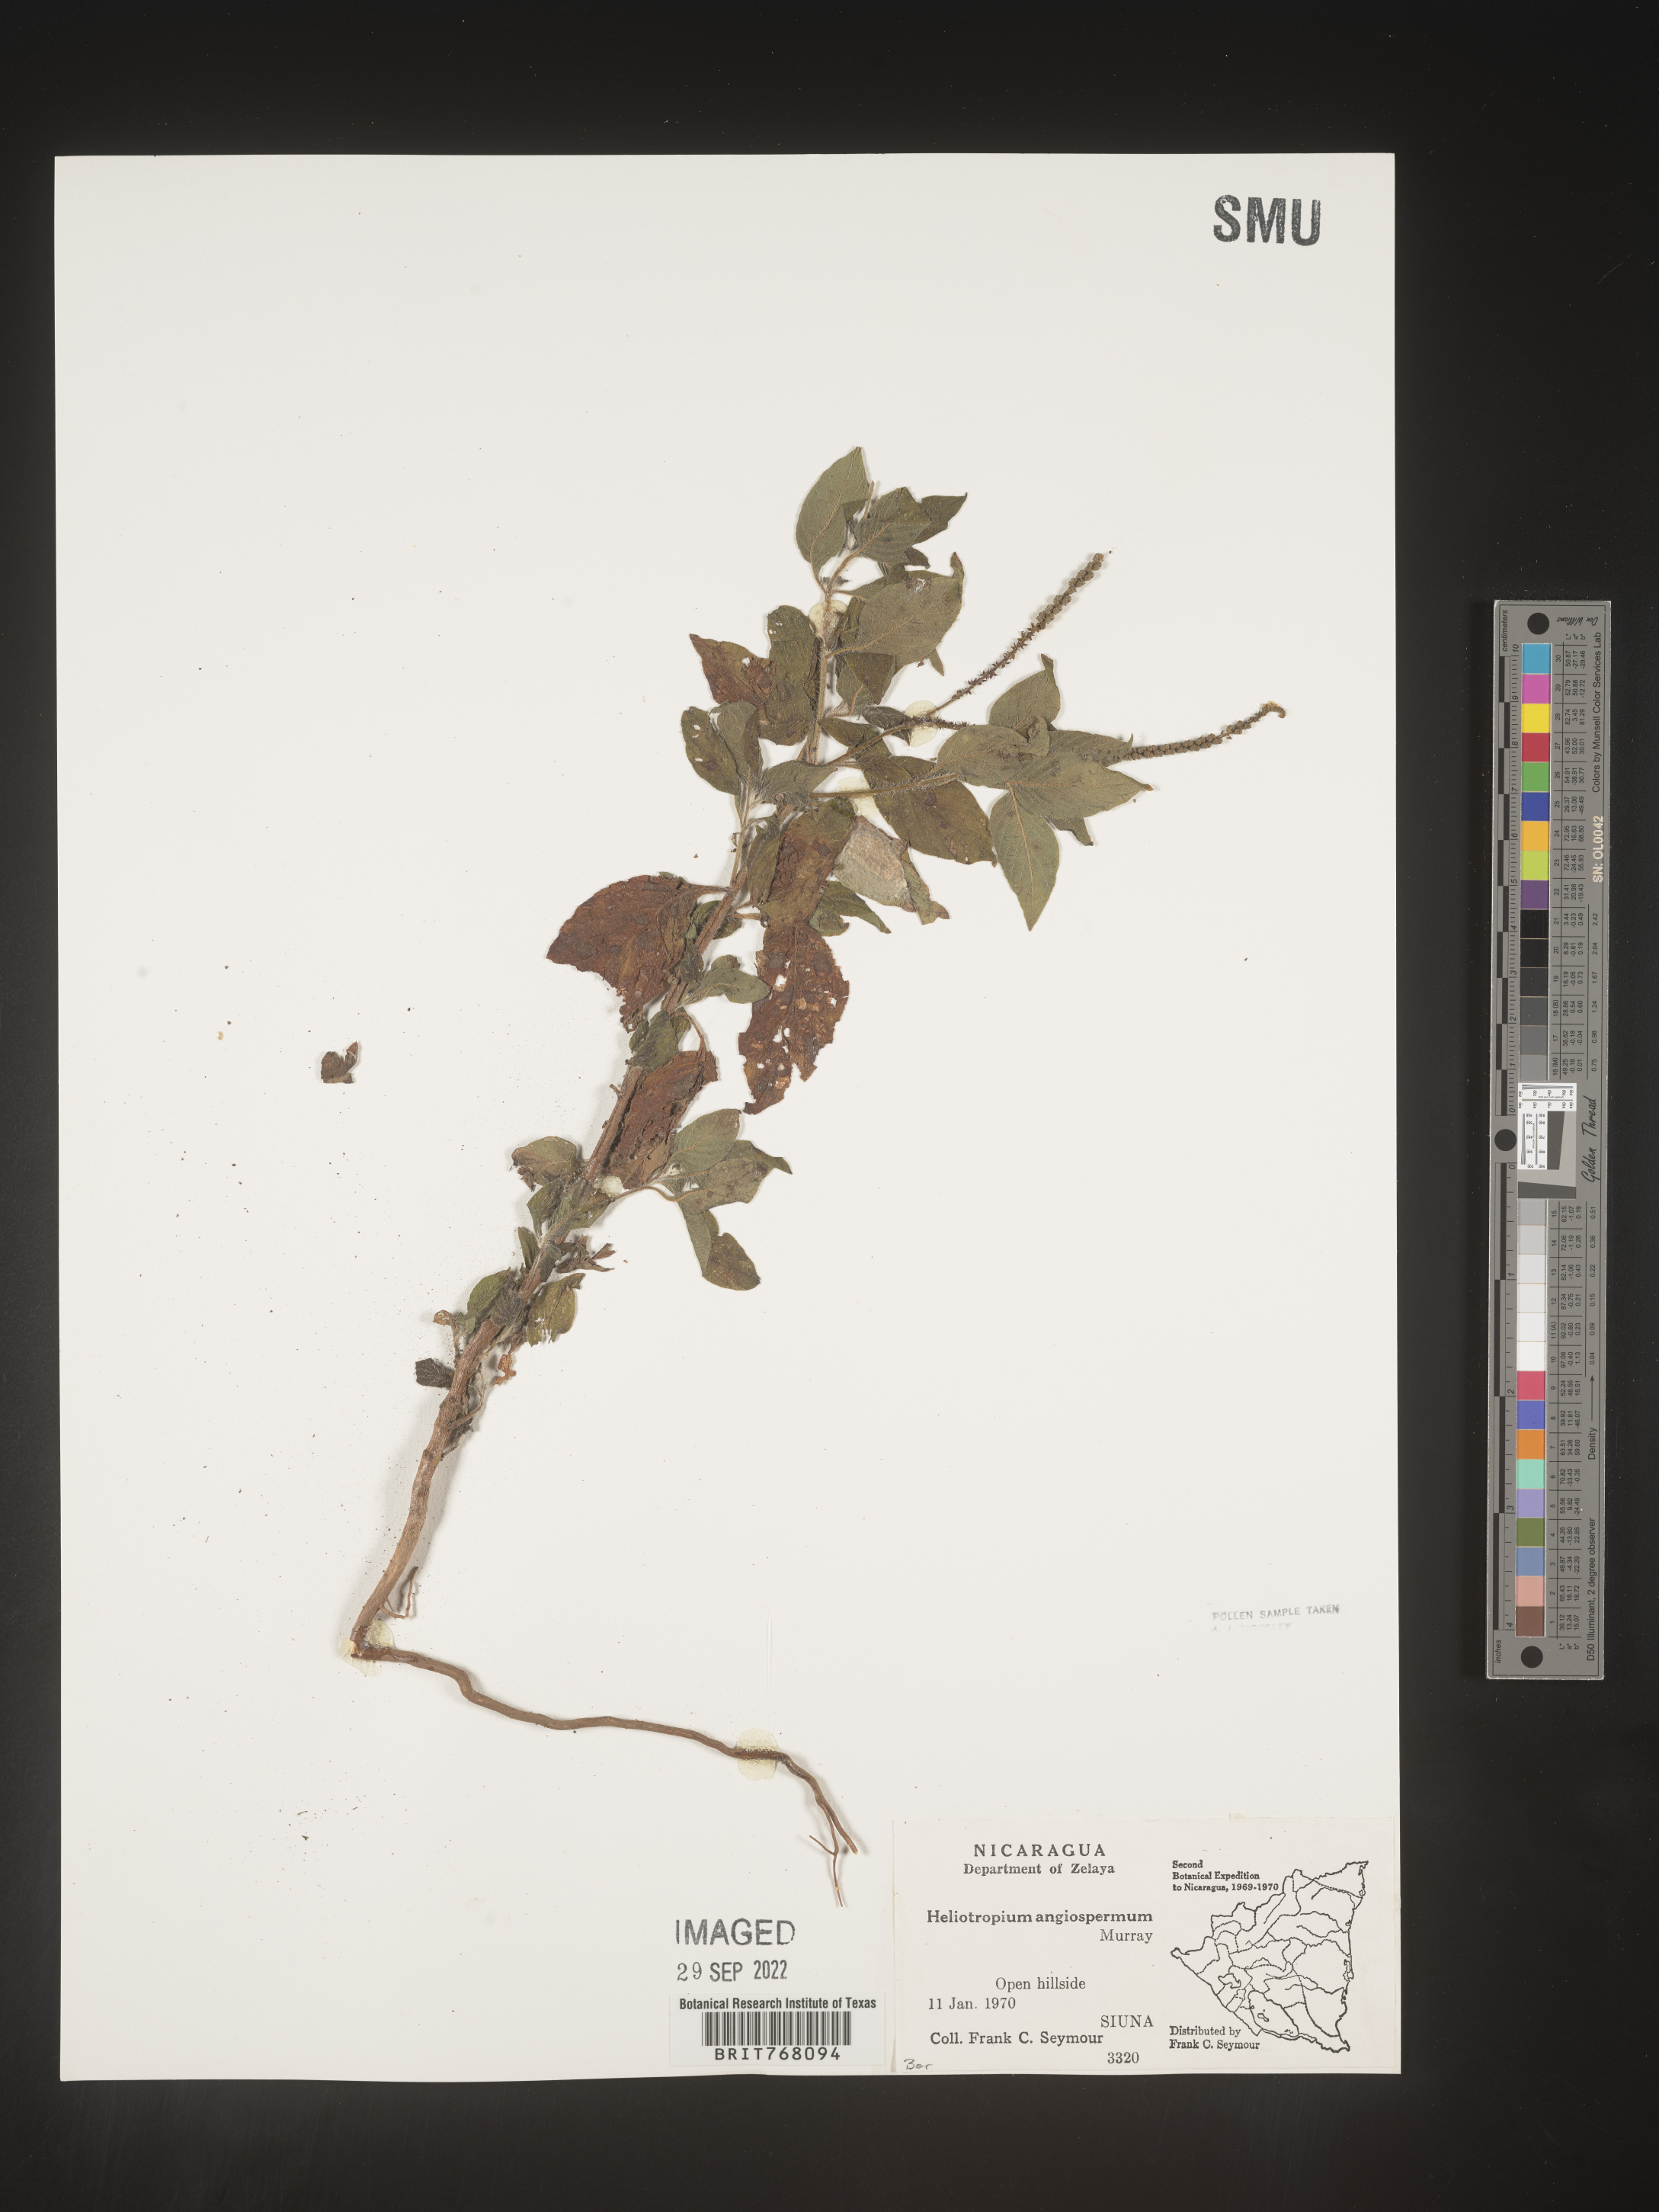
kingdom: Plantae
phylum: Tracheophyta
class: Magnoliopsida
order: Boraginales
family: Heliotropiaceae
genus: Heliotropium
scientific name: Heliotropium
